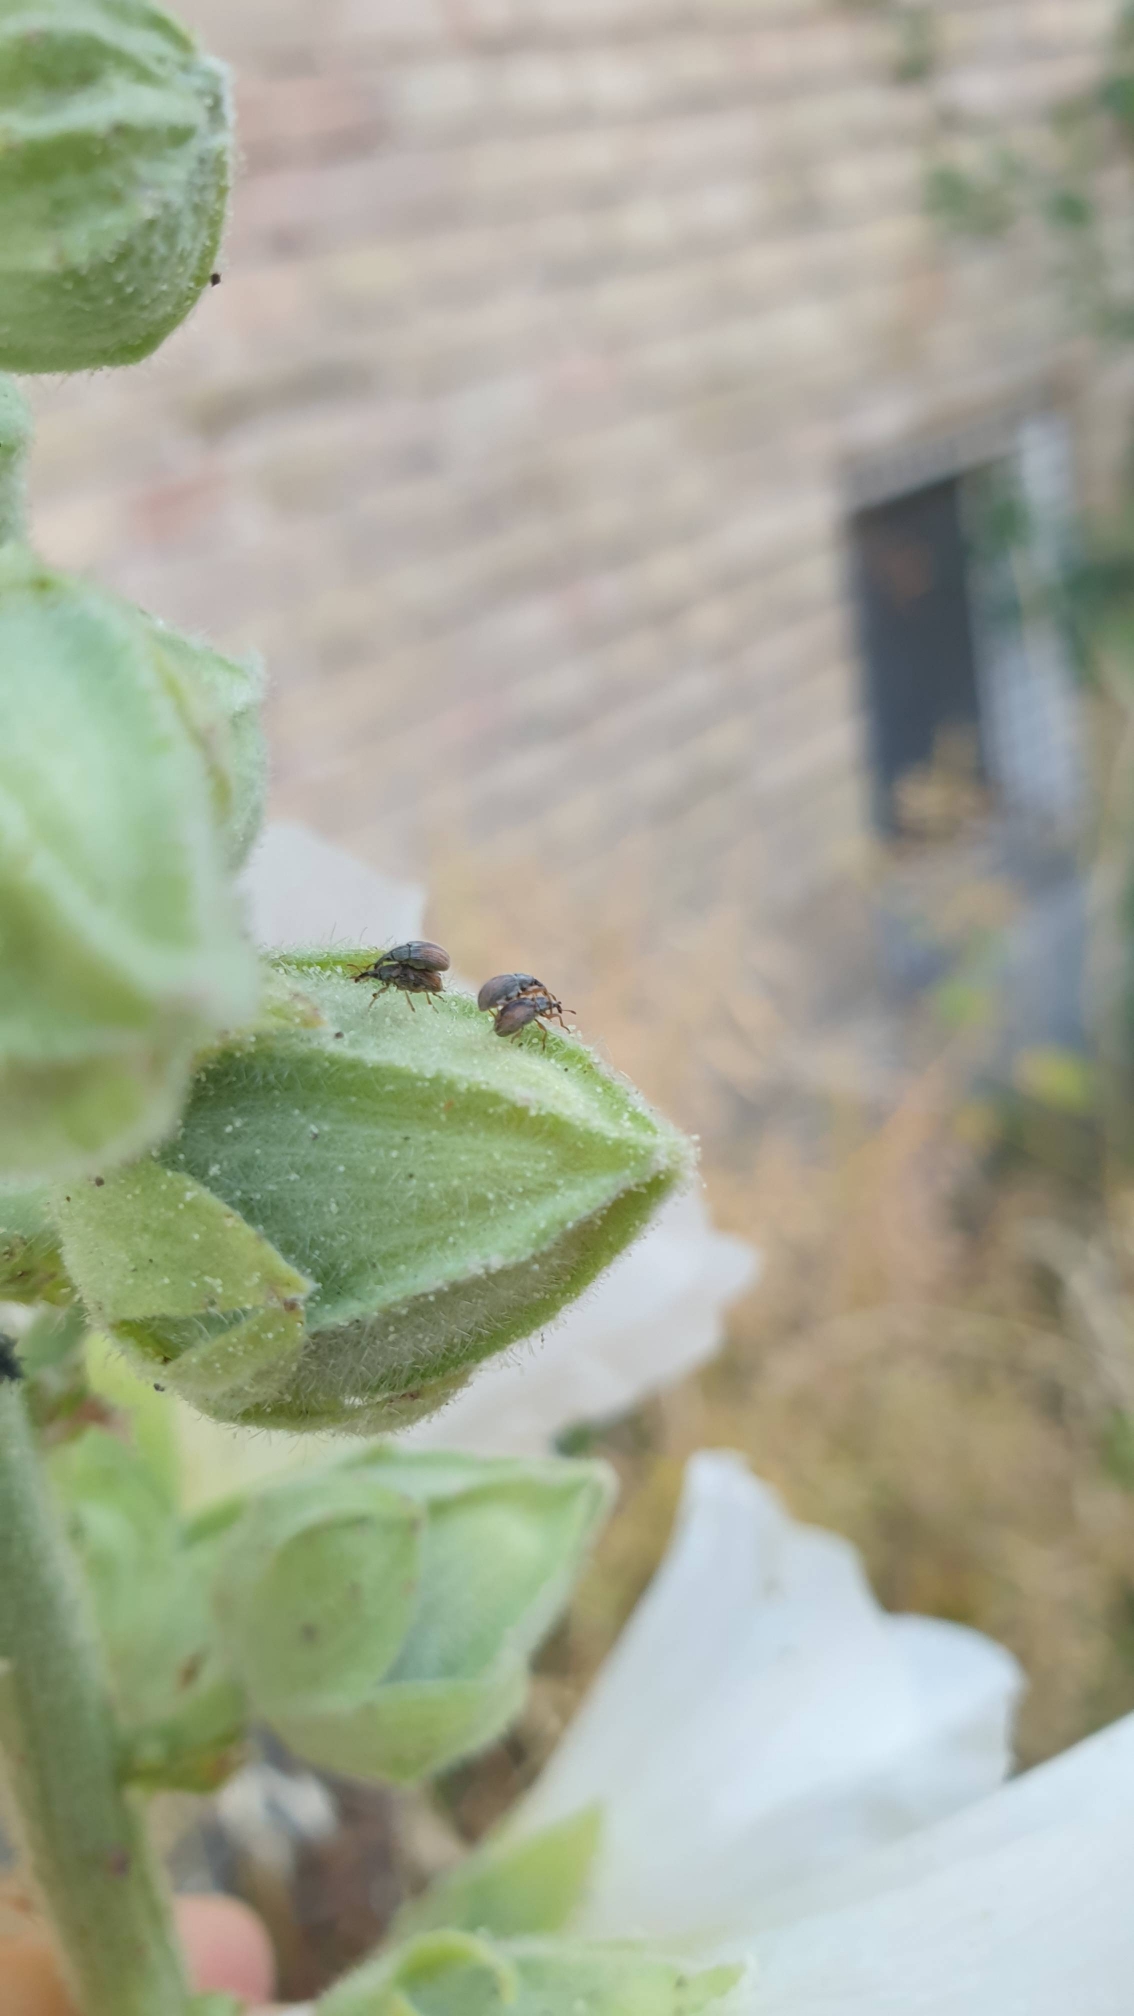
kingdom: Animalia
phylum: Arthropoda
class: Insecta
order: Coleoptera
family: Apionidae
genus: Malvapion
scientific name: Malvapion malvae
